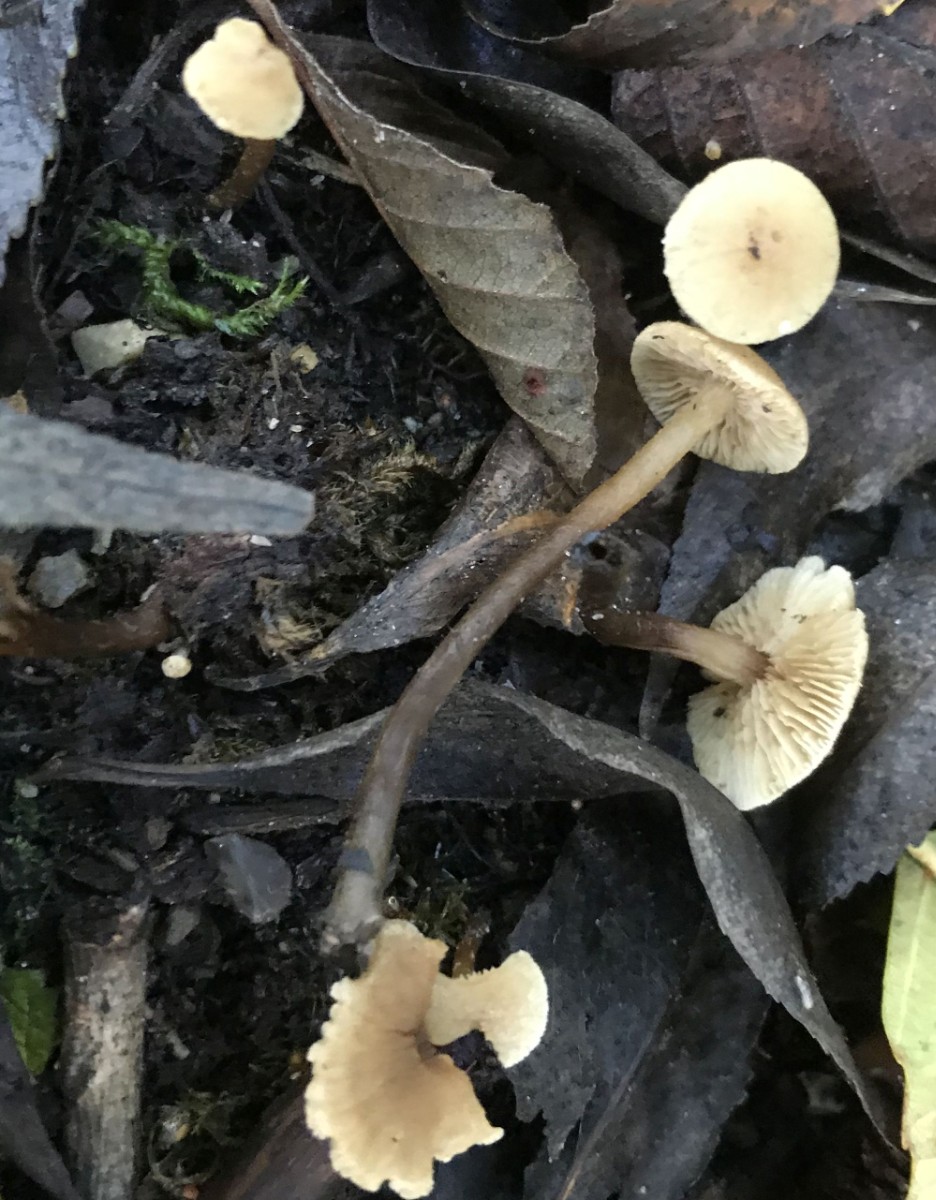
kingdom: Fungi
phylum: Basidiomycota
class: Agaricomycetes
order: Agaricales
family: Hymenogastraceae
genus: Naucoria
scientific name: Naucoria escharioides
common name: lys elle-knaphat
